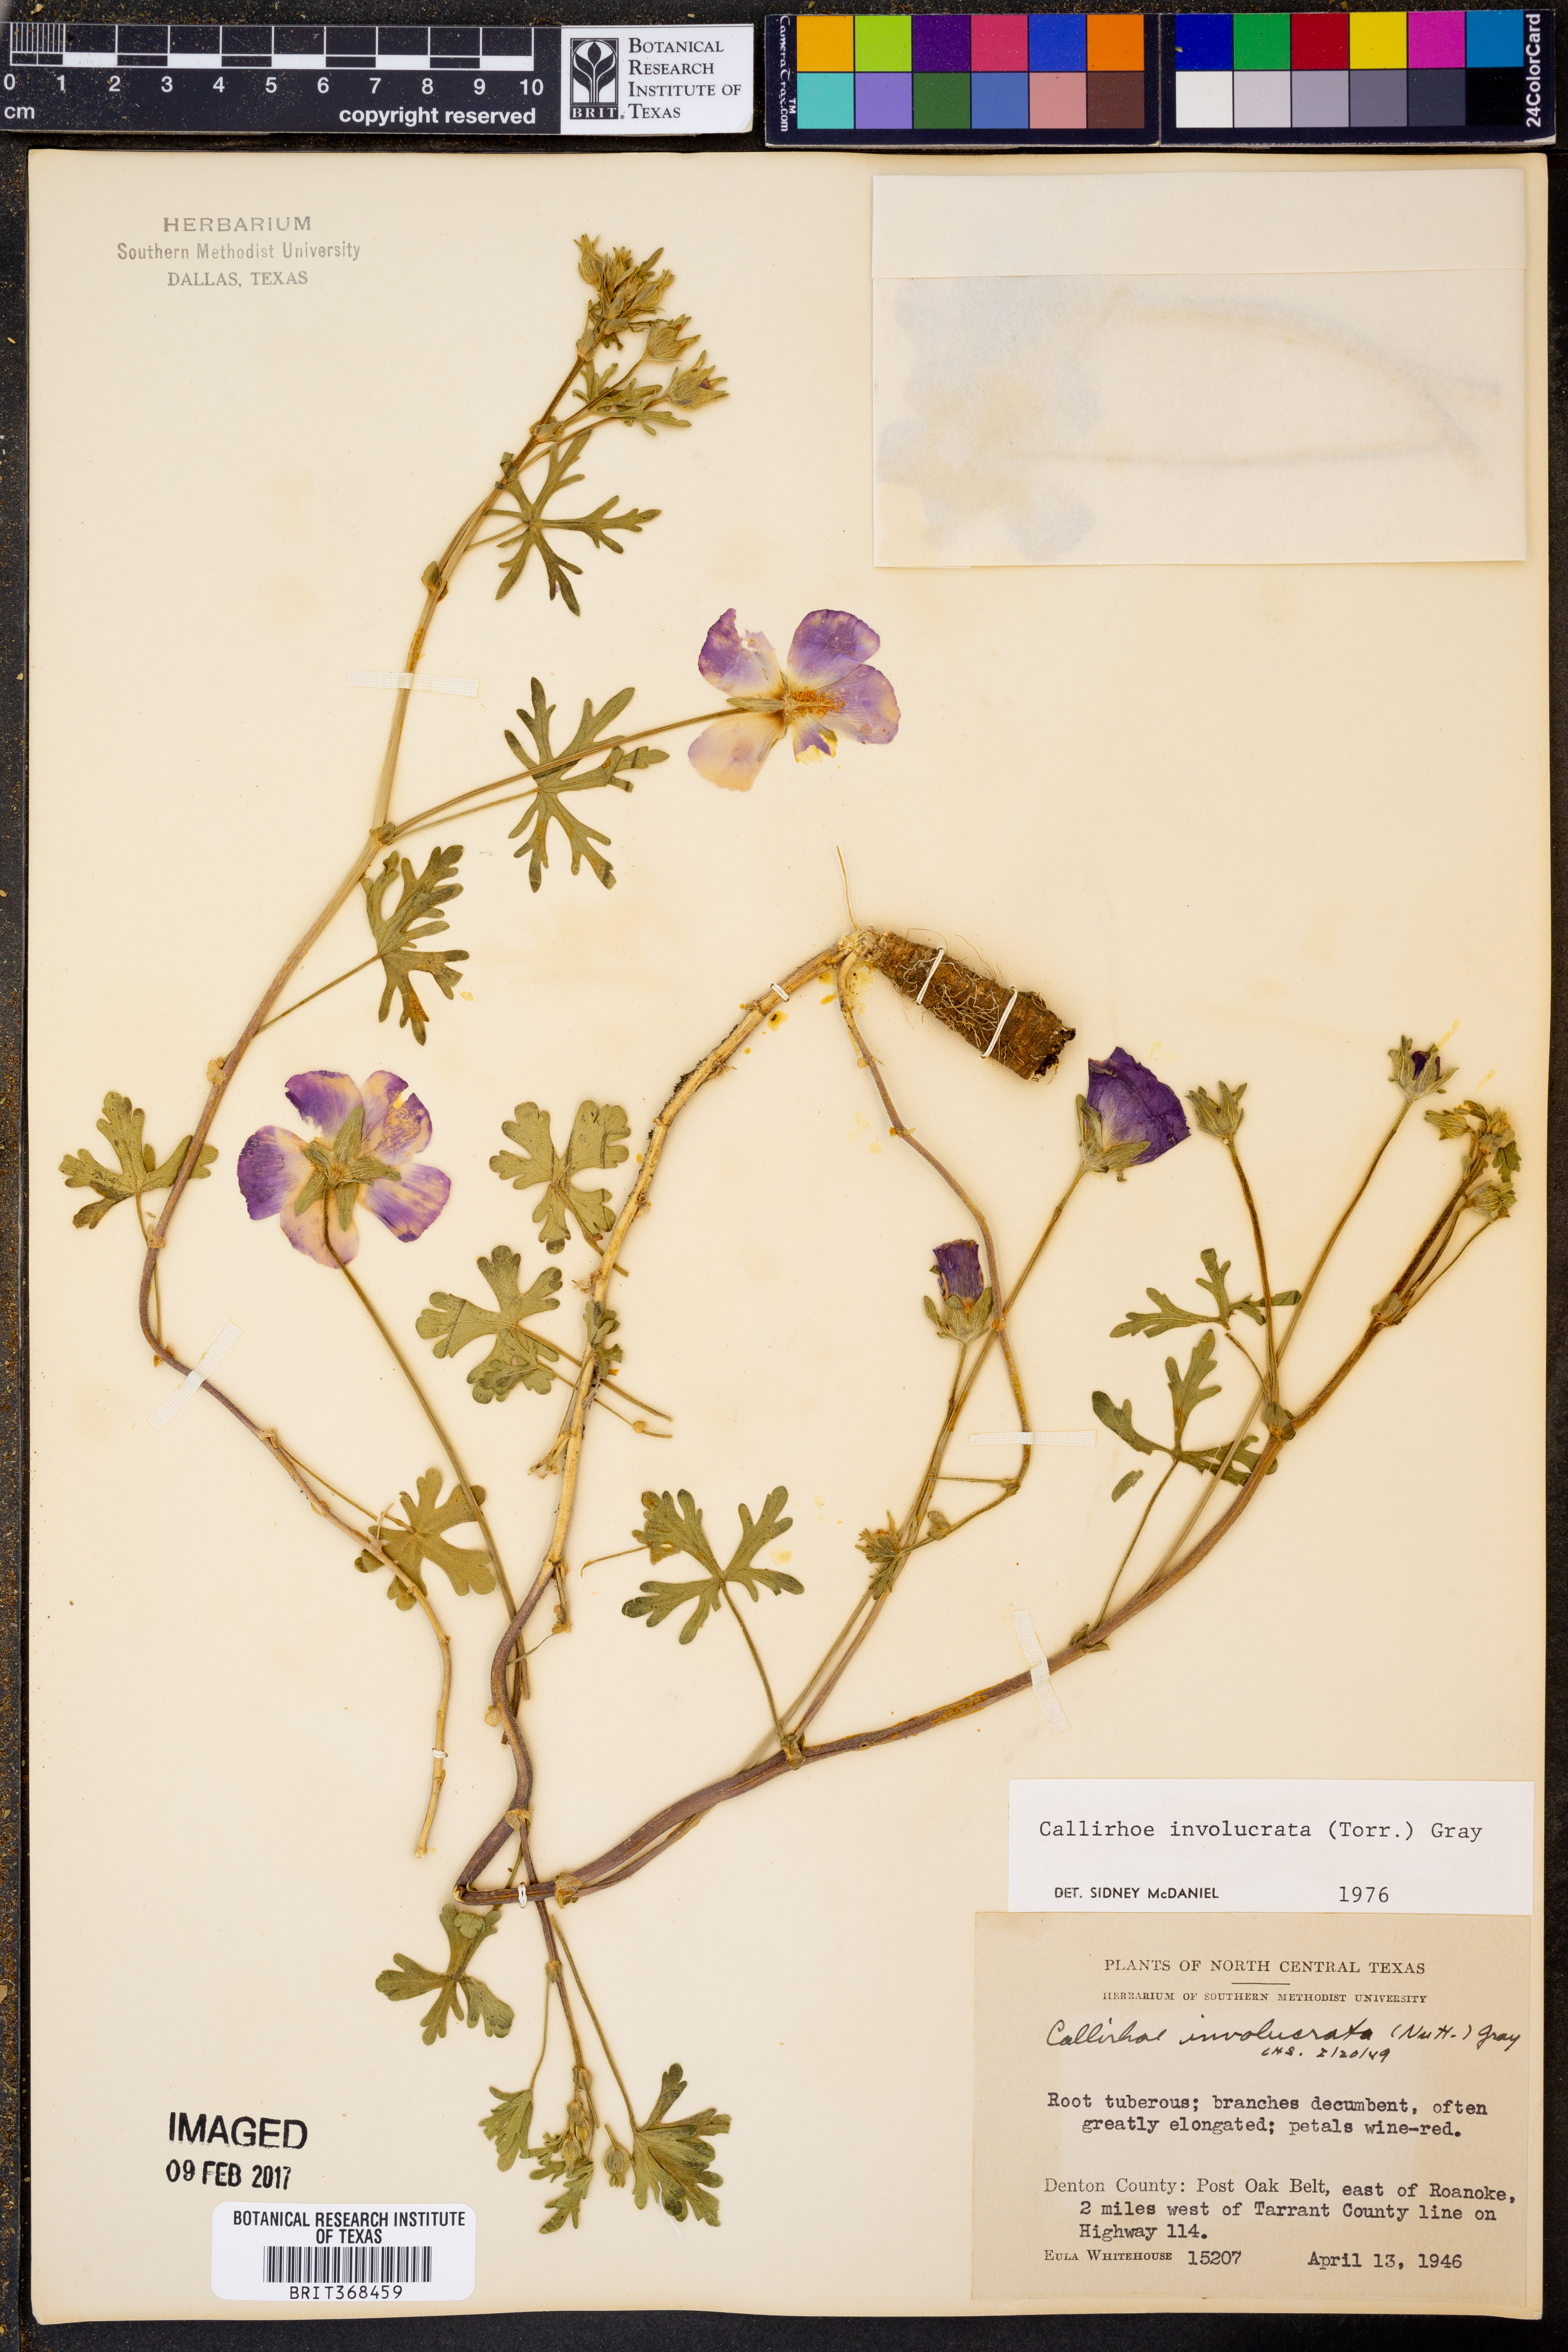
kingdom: Plantae
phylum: Tracheophyta
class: Magnoliopsida
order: Malvales
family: Malvaceae
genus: Callirhoe
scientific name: Callirhoe involucrata
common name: Purple poppy-mallow
